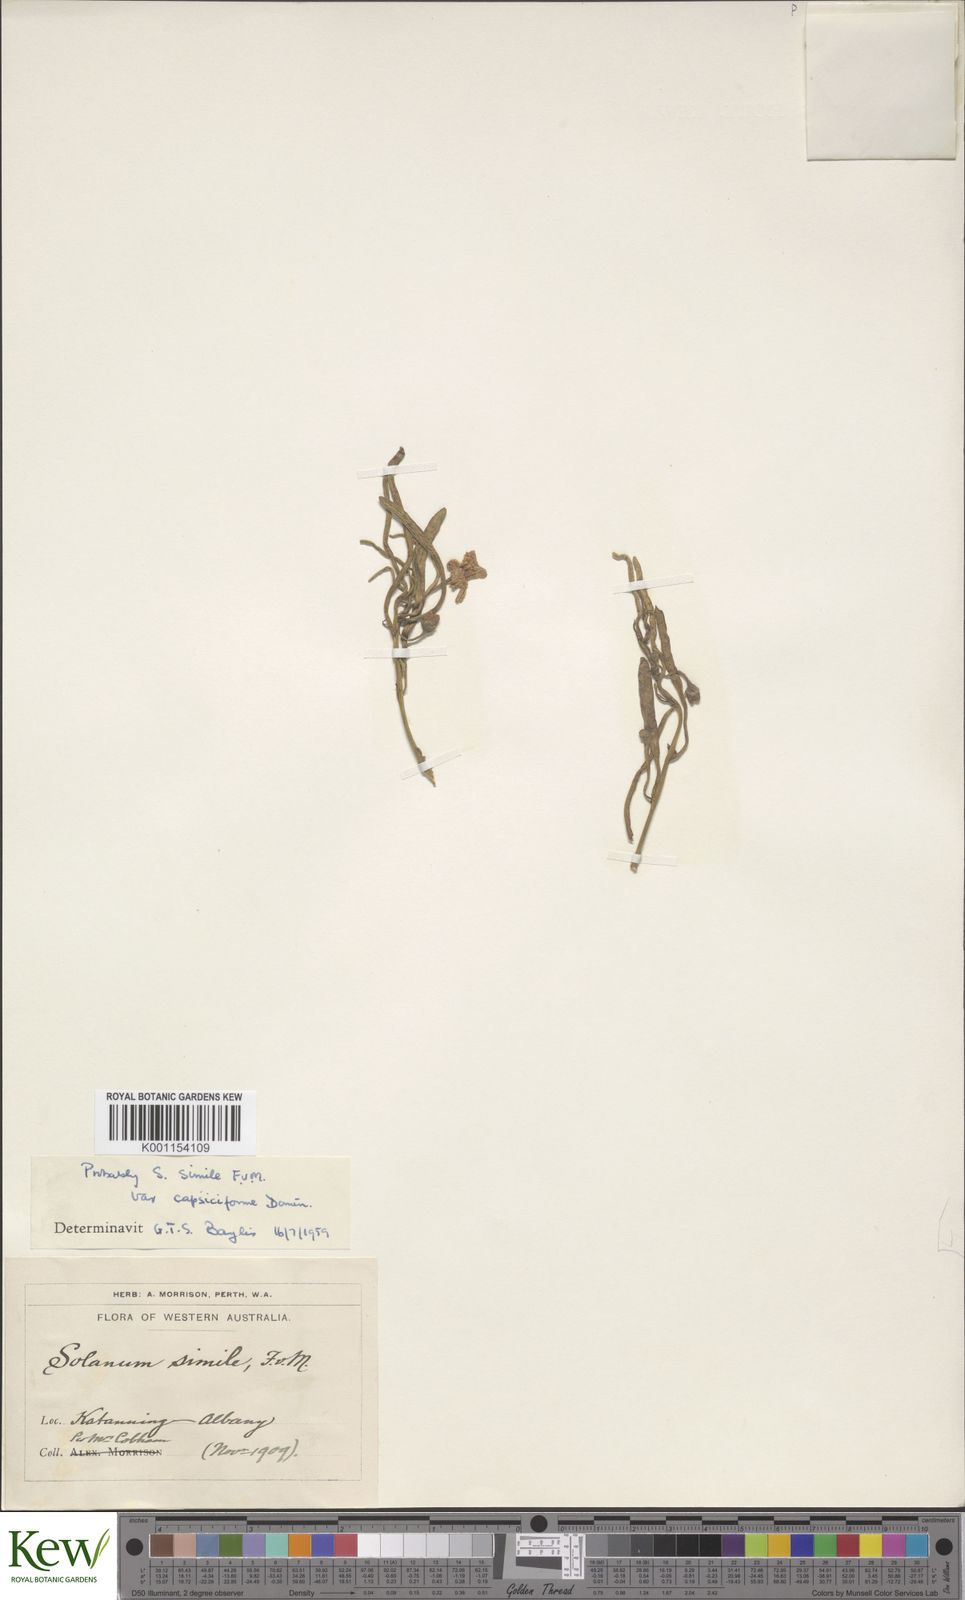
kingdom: Plantae
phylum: Tracheophyta
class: Magnoliopsida
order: Solanales
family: Solanaceae
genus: Solanum
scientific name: Solanum
